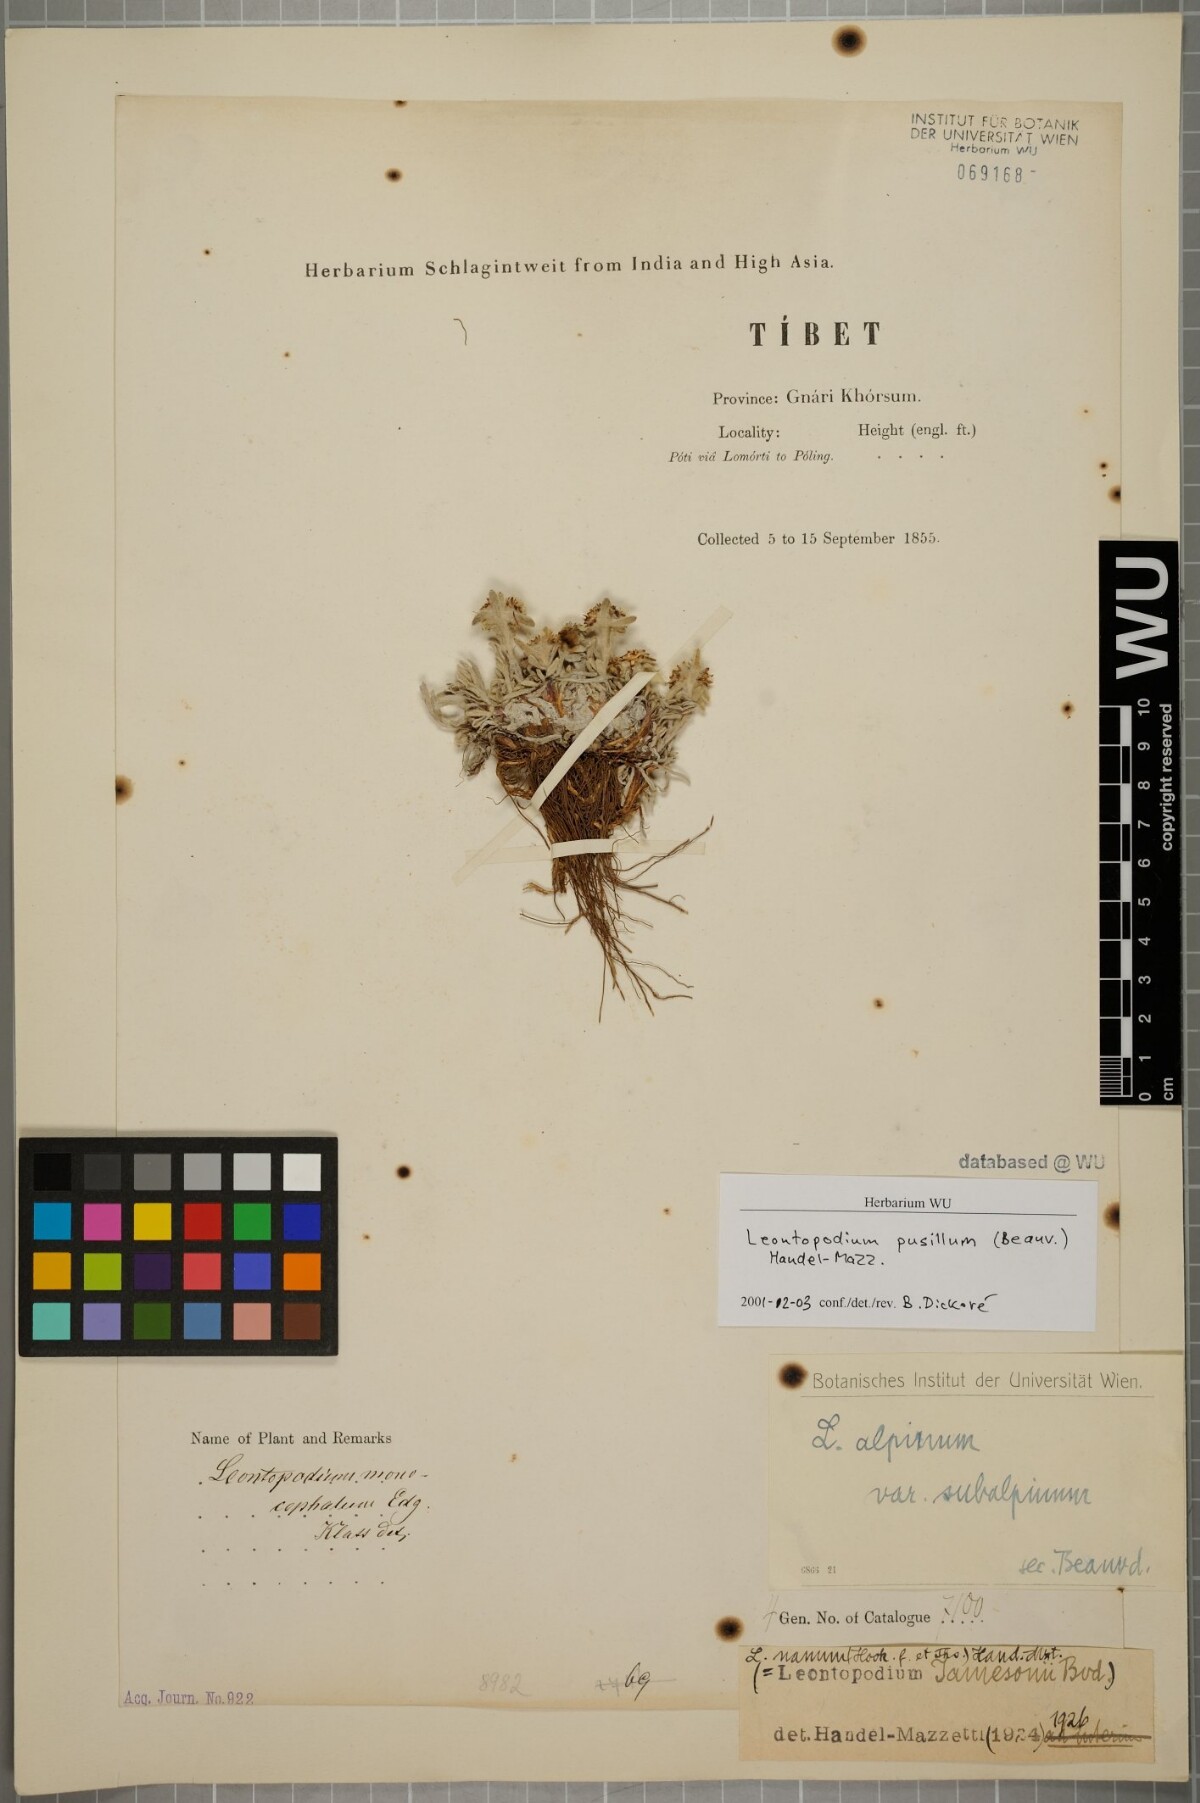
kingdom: Plantae
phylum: Tracheophyta
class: Magnoliopsida
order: Asterales
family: Asteraceae
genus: Leontopodium
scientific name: Leontopodium pusillum
